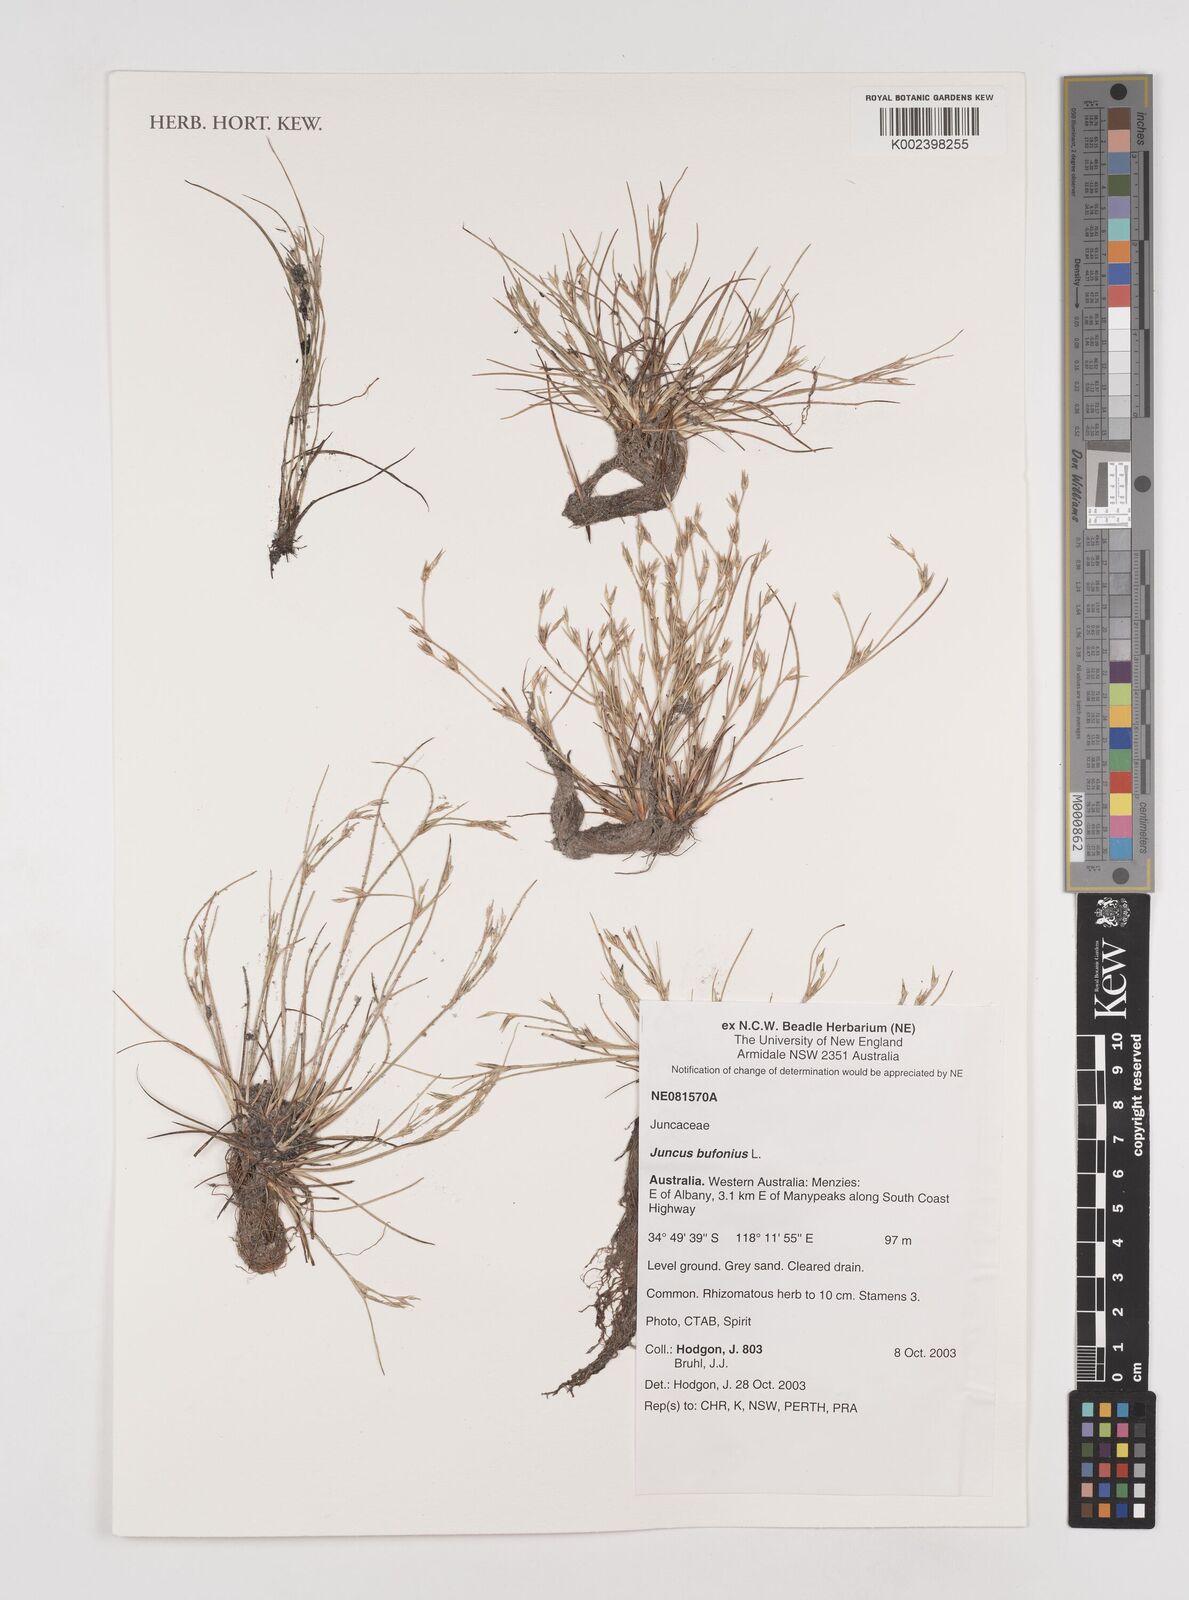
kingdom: Plantae
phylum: Tracheophyta
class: Liliopsida
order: Poales
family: Juncaceae
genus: Juncus
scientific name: Juncus bufonius
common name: Toad rush
